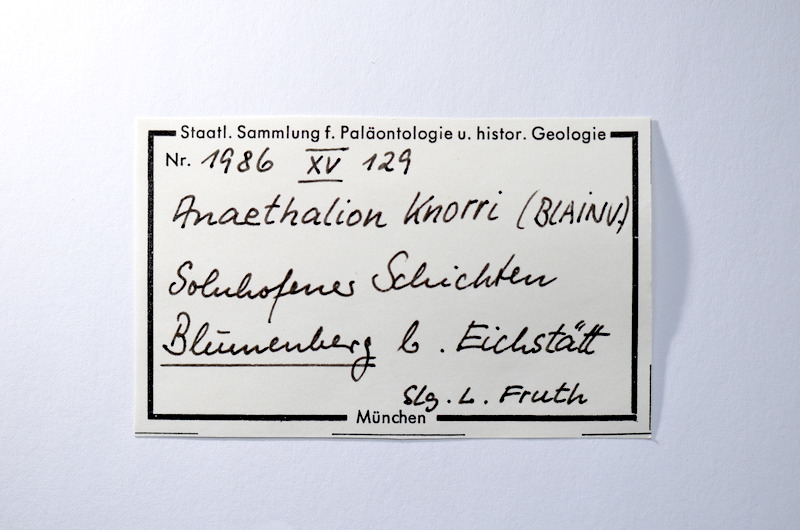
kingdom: Animalia
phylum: Chordata
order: Elopiformes
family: Anaethalionidae
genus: Anaethalion
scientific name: Anaethalion knorri
